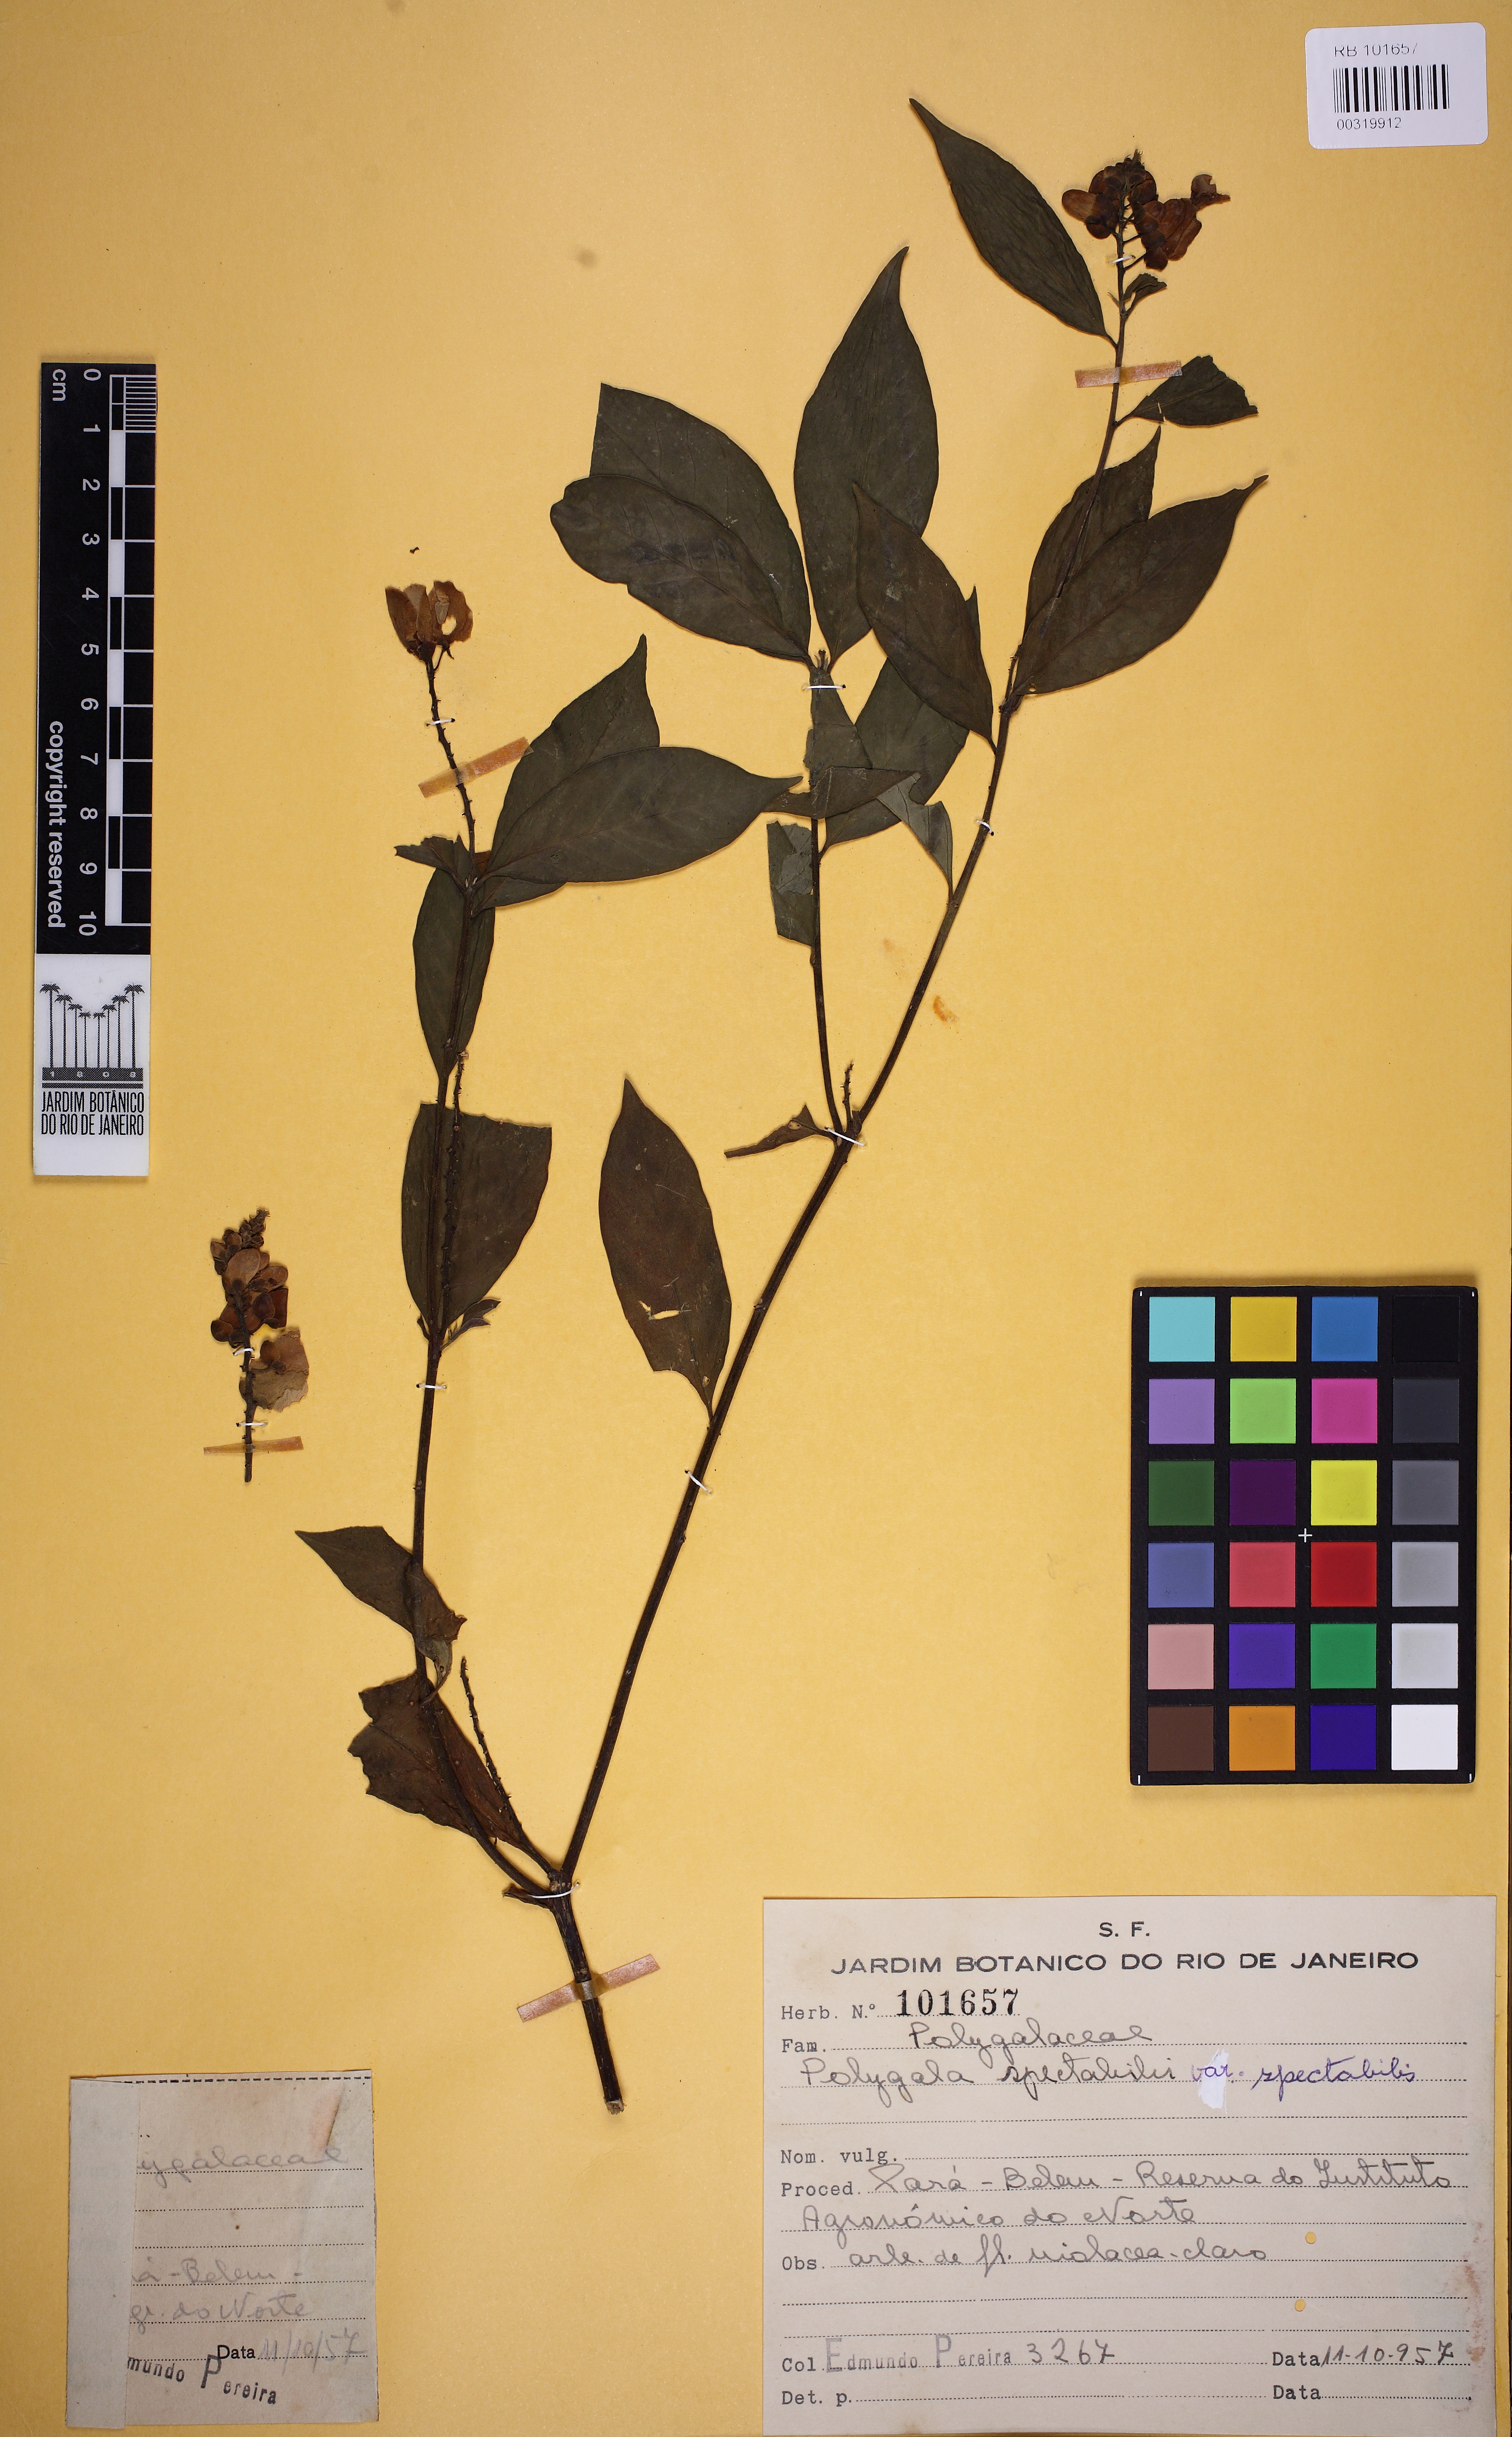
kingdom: Plantae
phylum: Tracheophyta
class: Magnoliopsida
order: Fabales
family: Polygalaceae
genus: Caamembeca
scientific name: Caamembeca spectabilis
